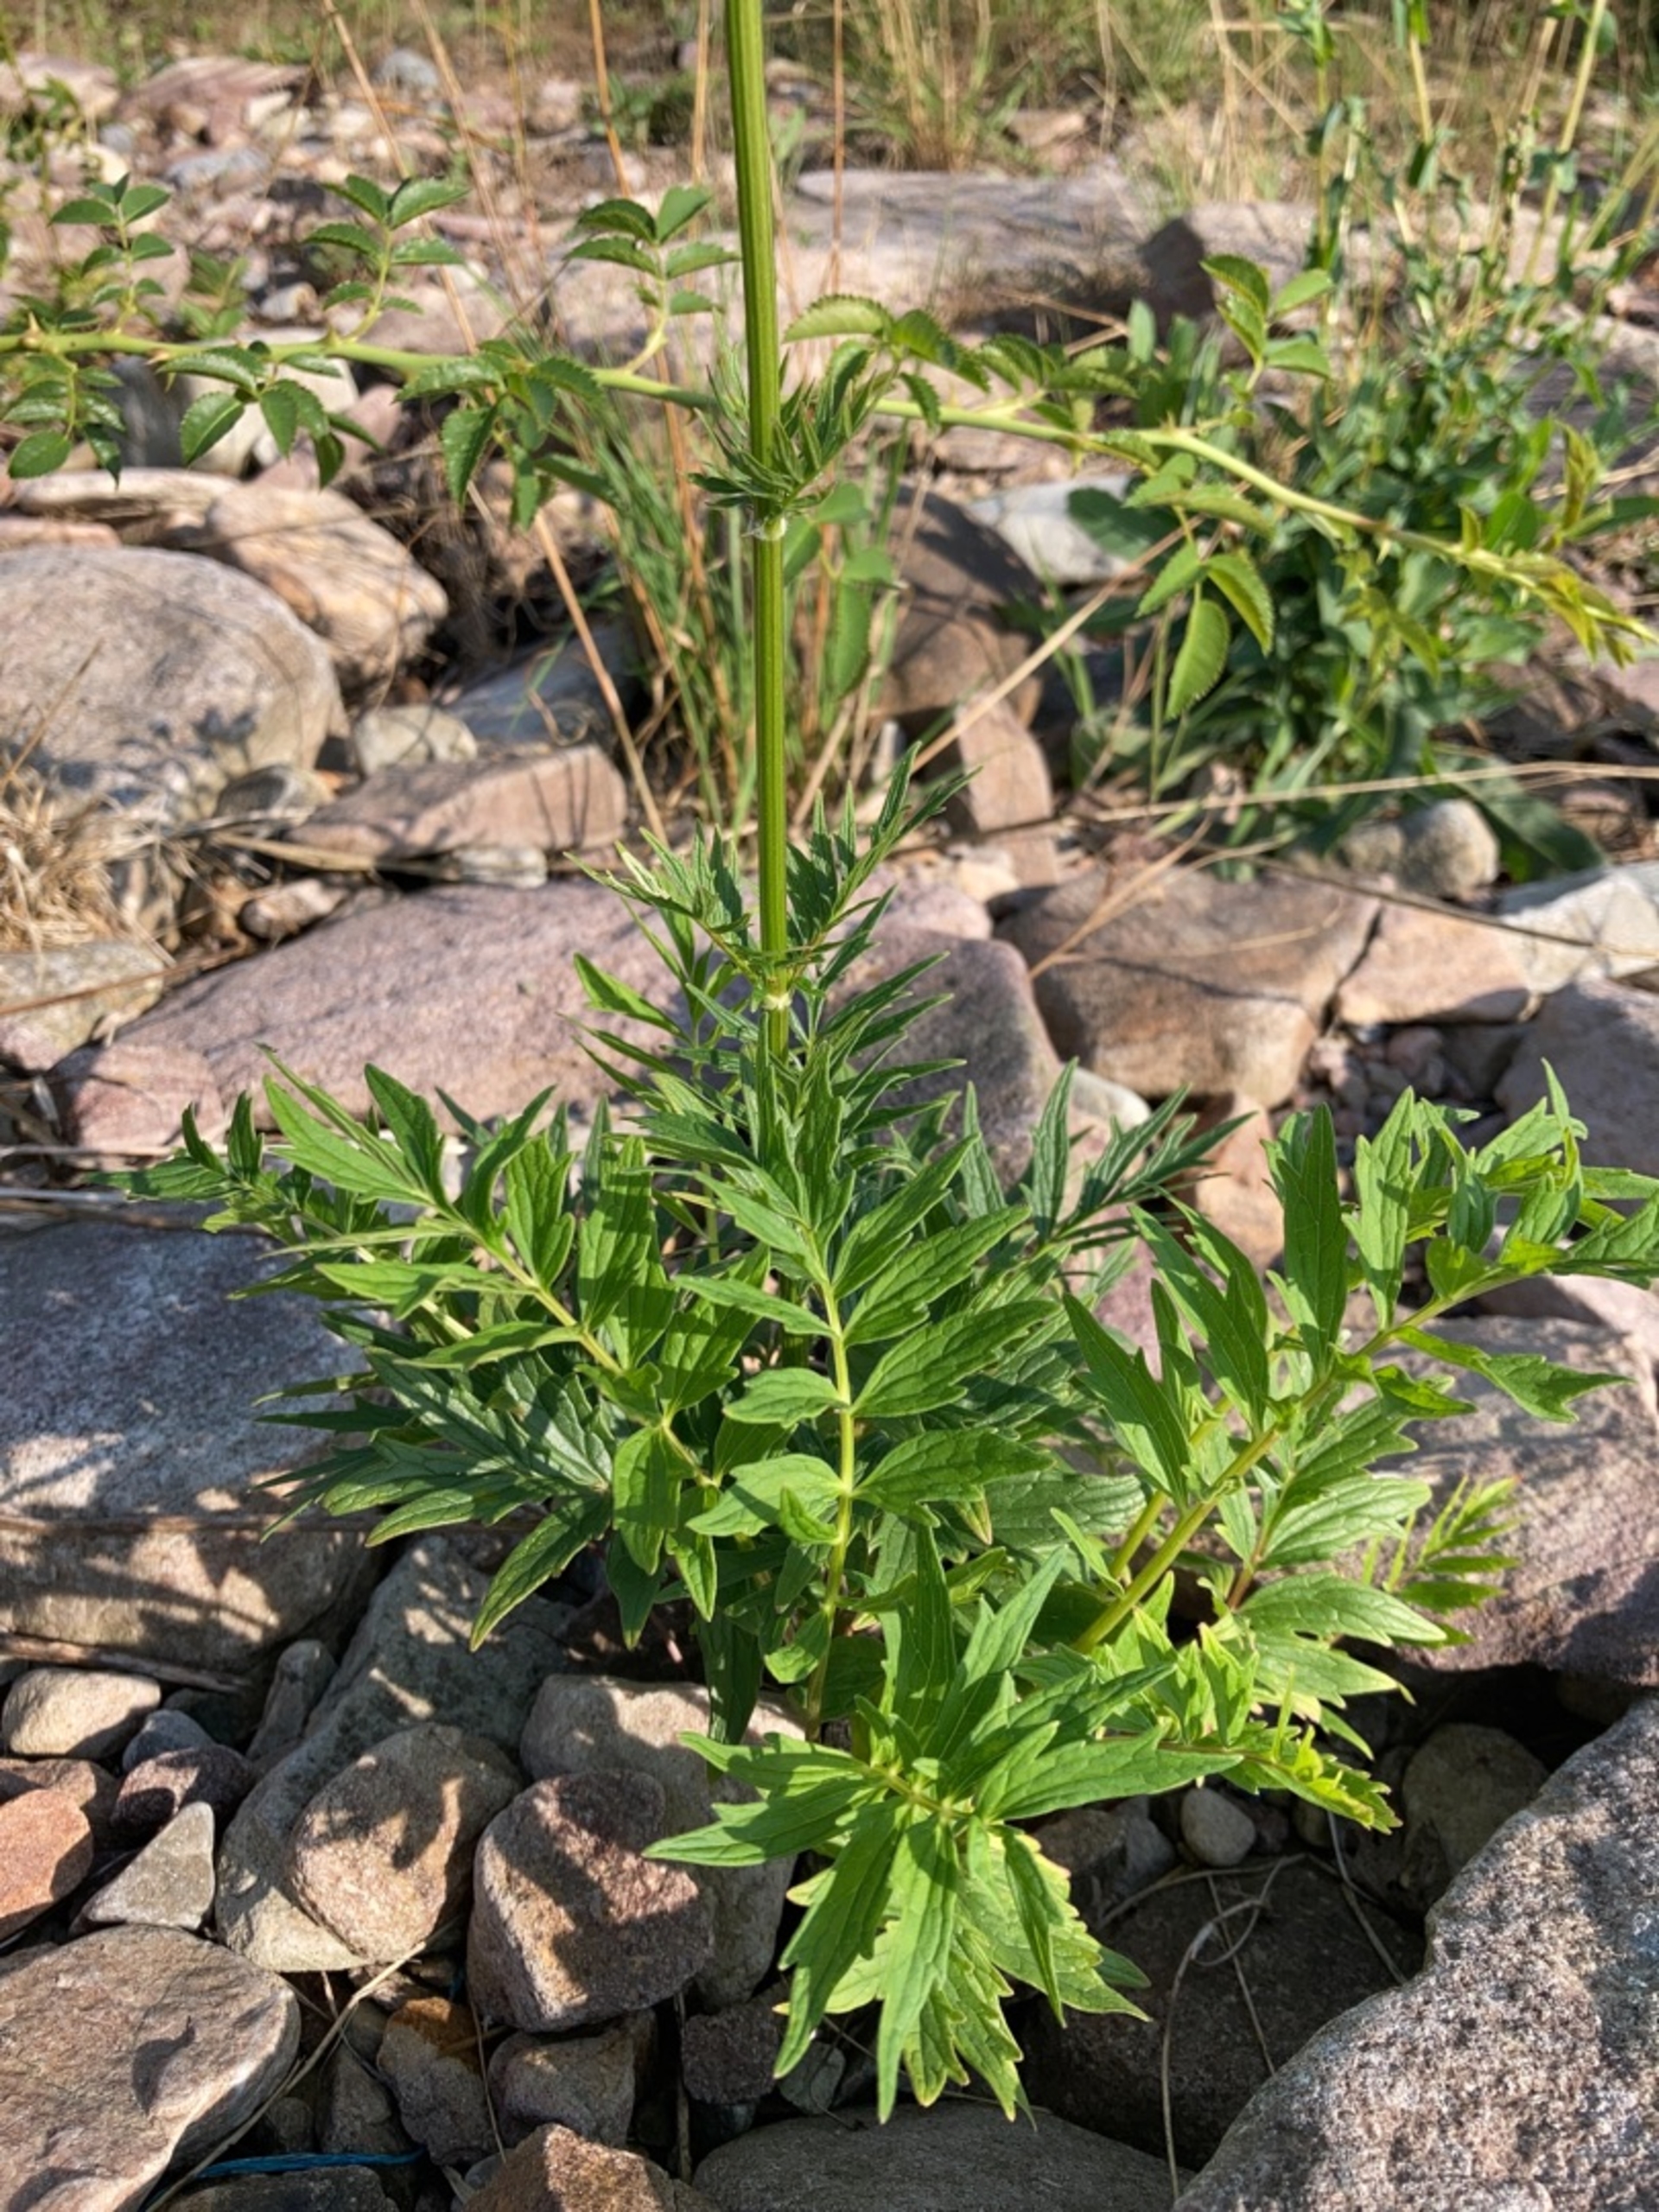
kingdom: Plantae
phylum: Tracheophyta
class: Magnoliopsida
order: Dipsacales
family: Caprifoliaceae
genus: Valeriana
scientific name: Valeriana officinalis
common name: Læge-baldrian
